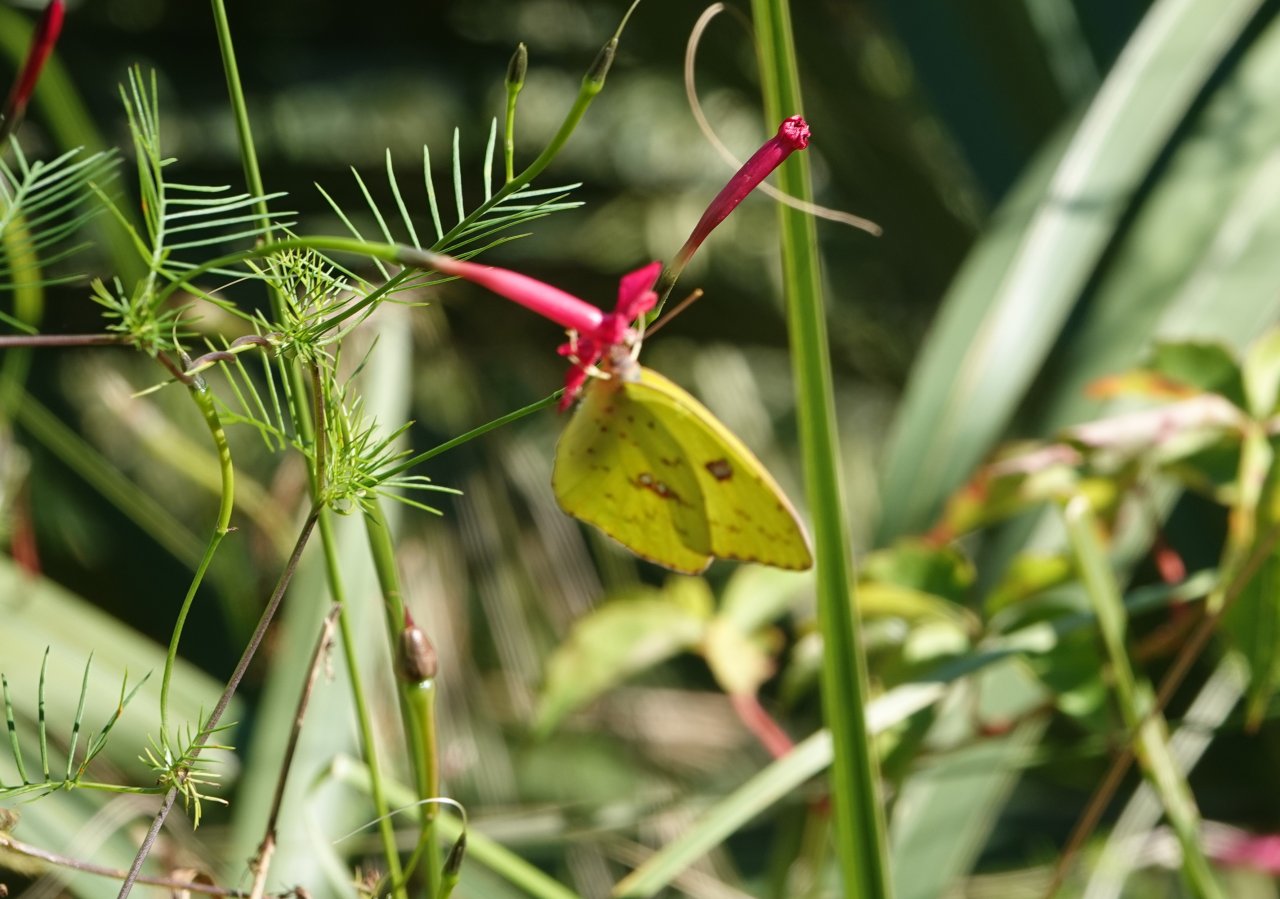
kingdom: Animalia
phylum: Arthropoda
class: Insecta
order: Lepidoptera
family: Pieridae
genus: Phoebis
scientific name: Phoebis sennae
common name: Cloudless Sulphur
